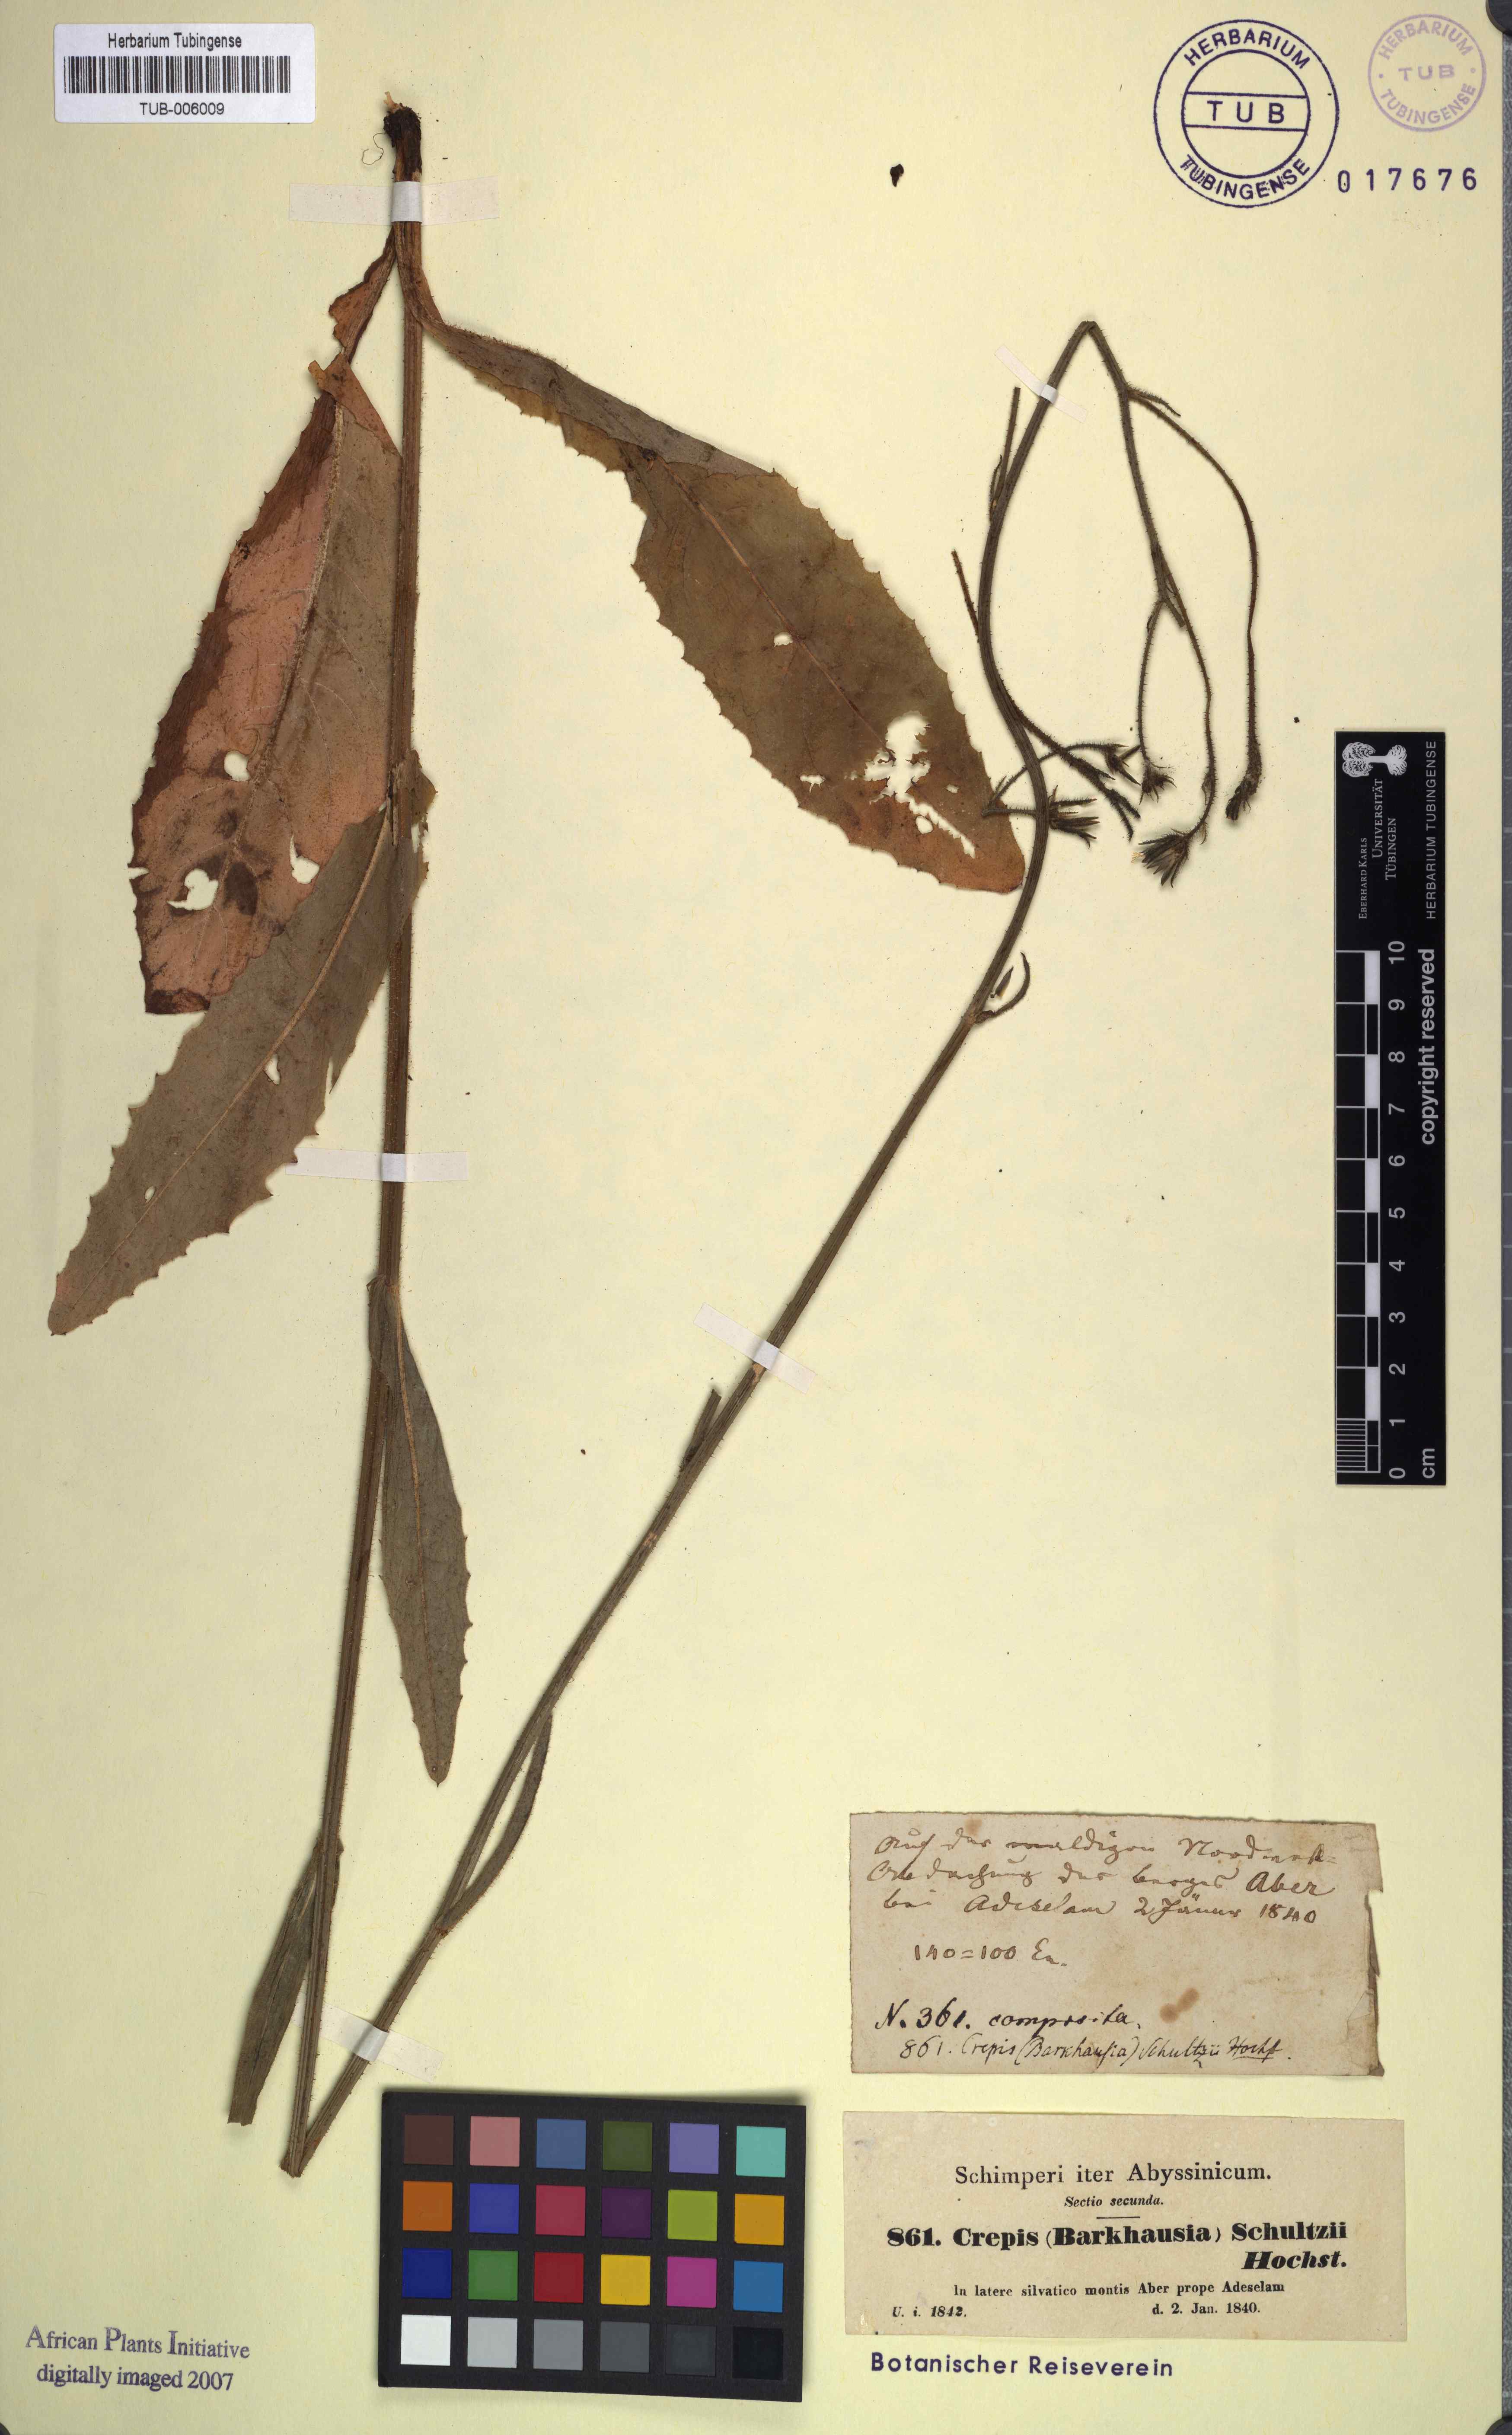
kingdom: Plantae
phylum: Tracheophyta
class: Magnoliopsida
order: Asterales
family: Asteraceae
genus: Crepis
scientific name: Crepis schultzii
